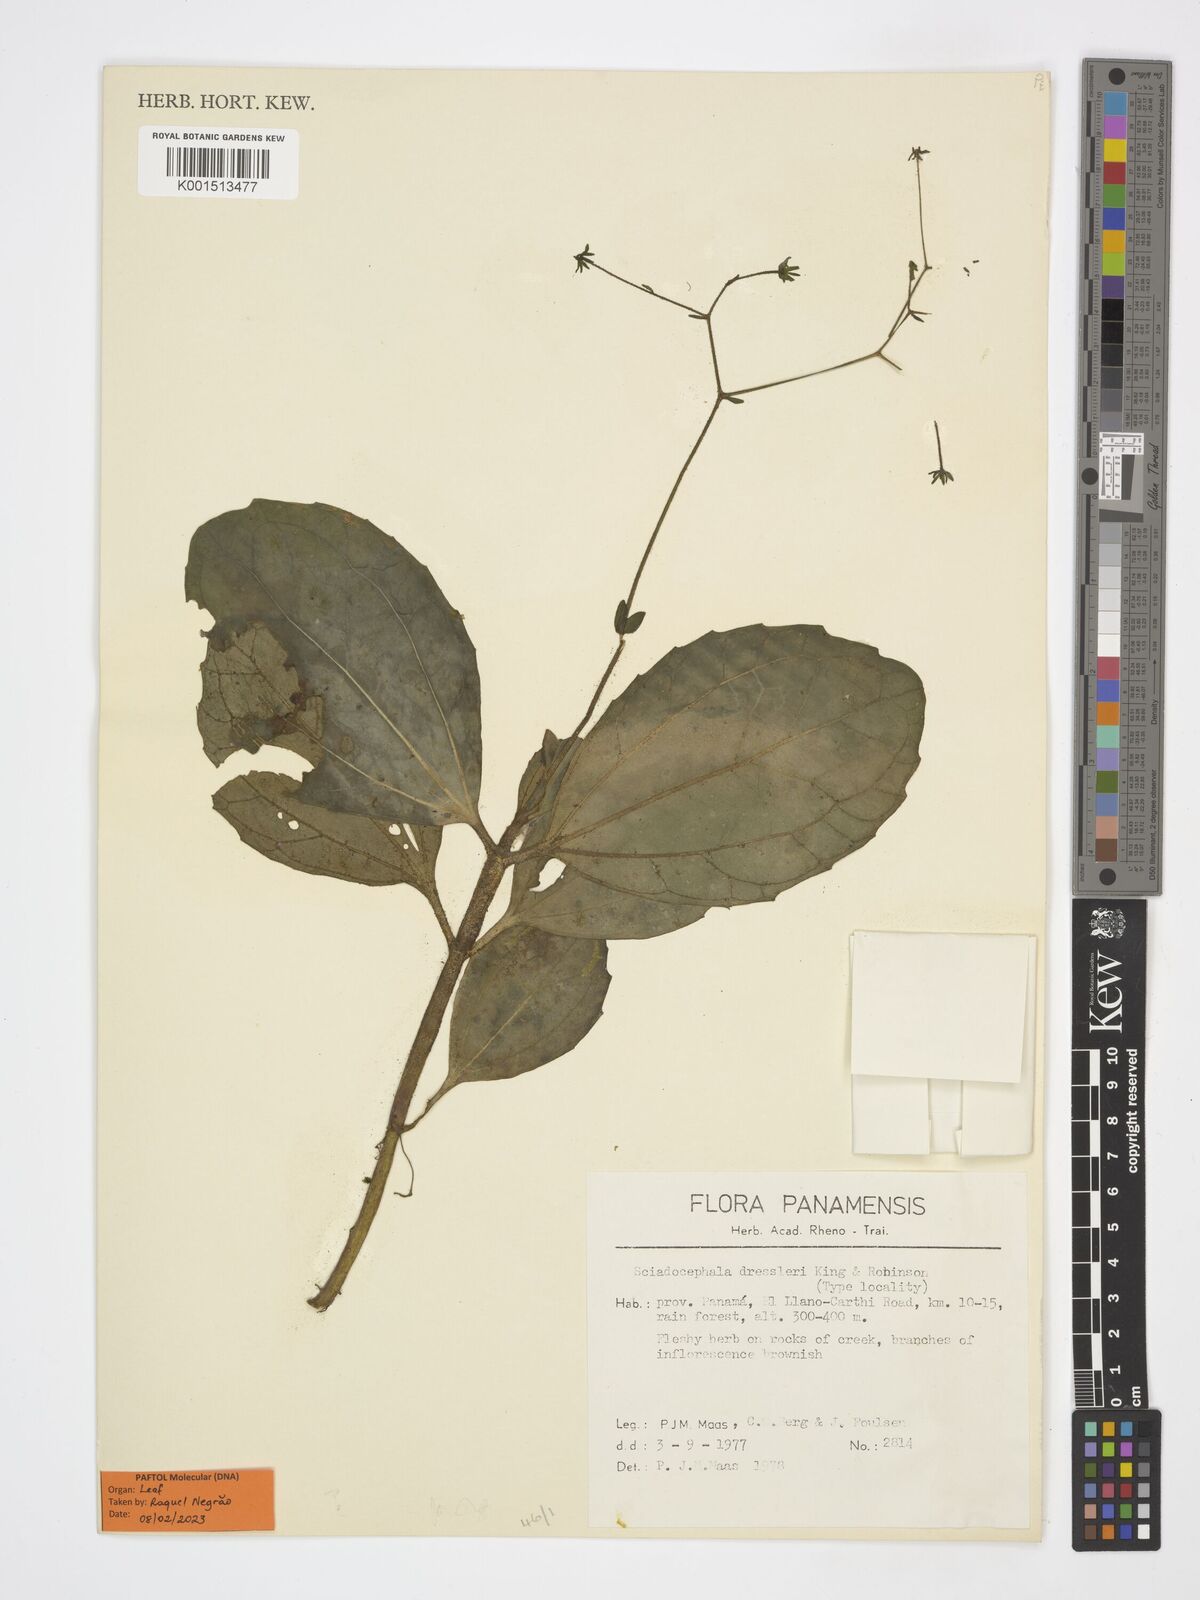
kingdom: Plantae
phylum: Tracheophyta
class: Magnoliopsida
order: Asterales
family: Asteraceae
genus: Sciadocephala
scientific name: Sciadocephala dressleri
